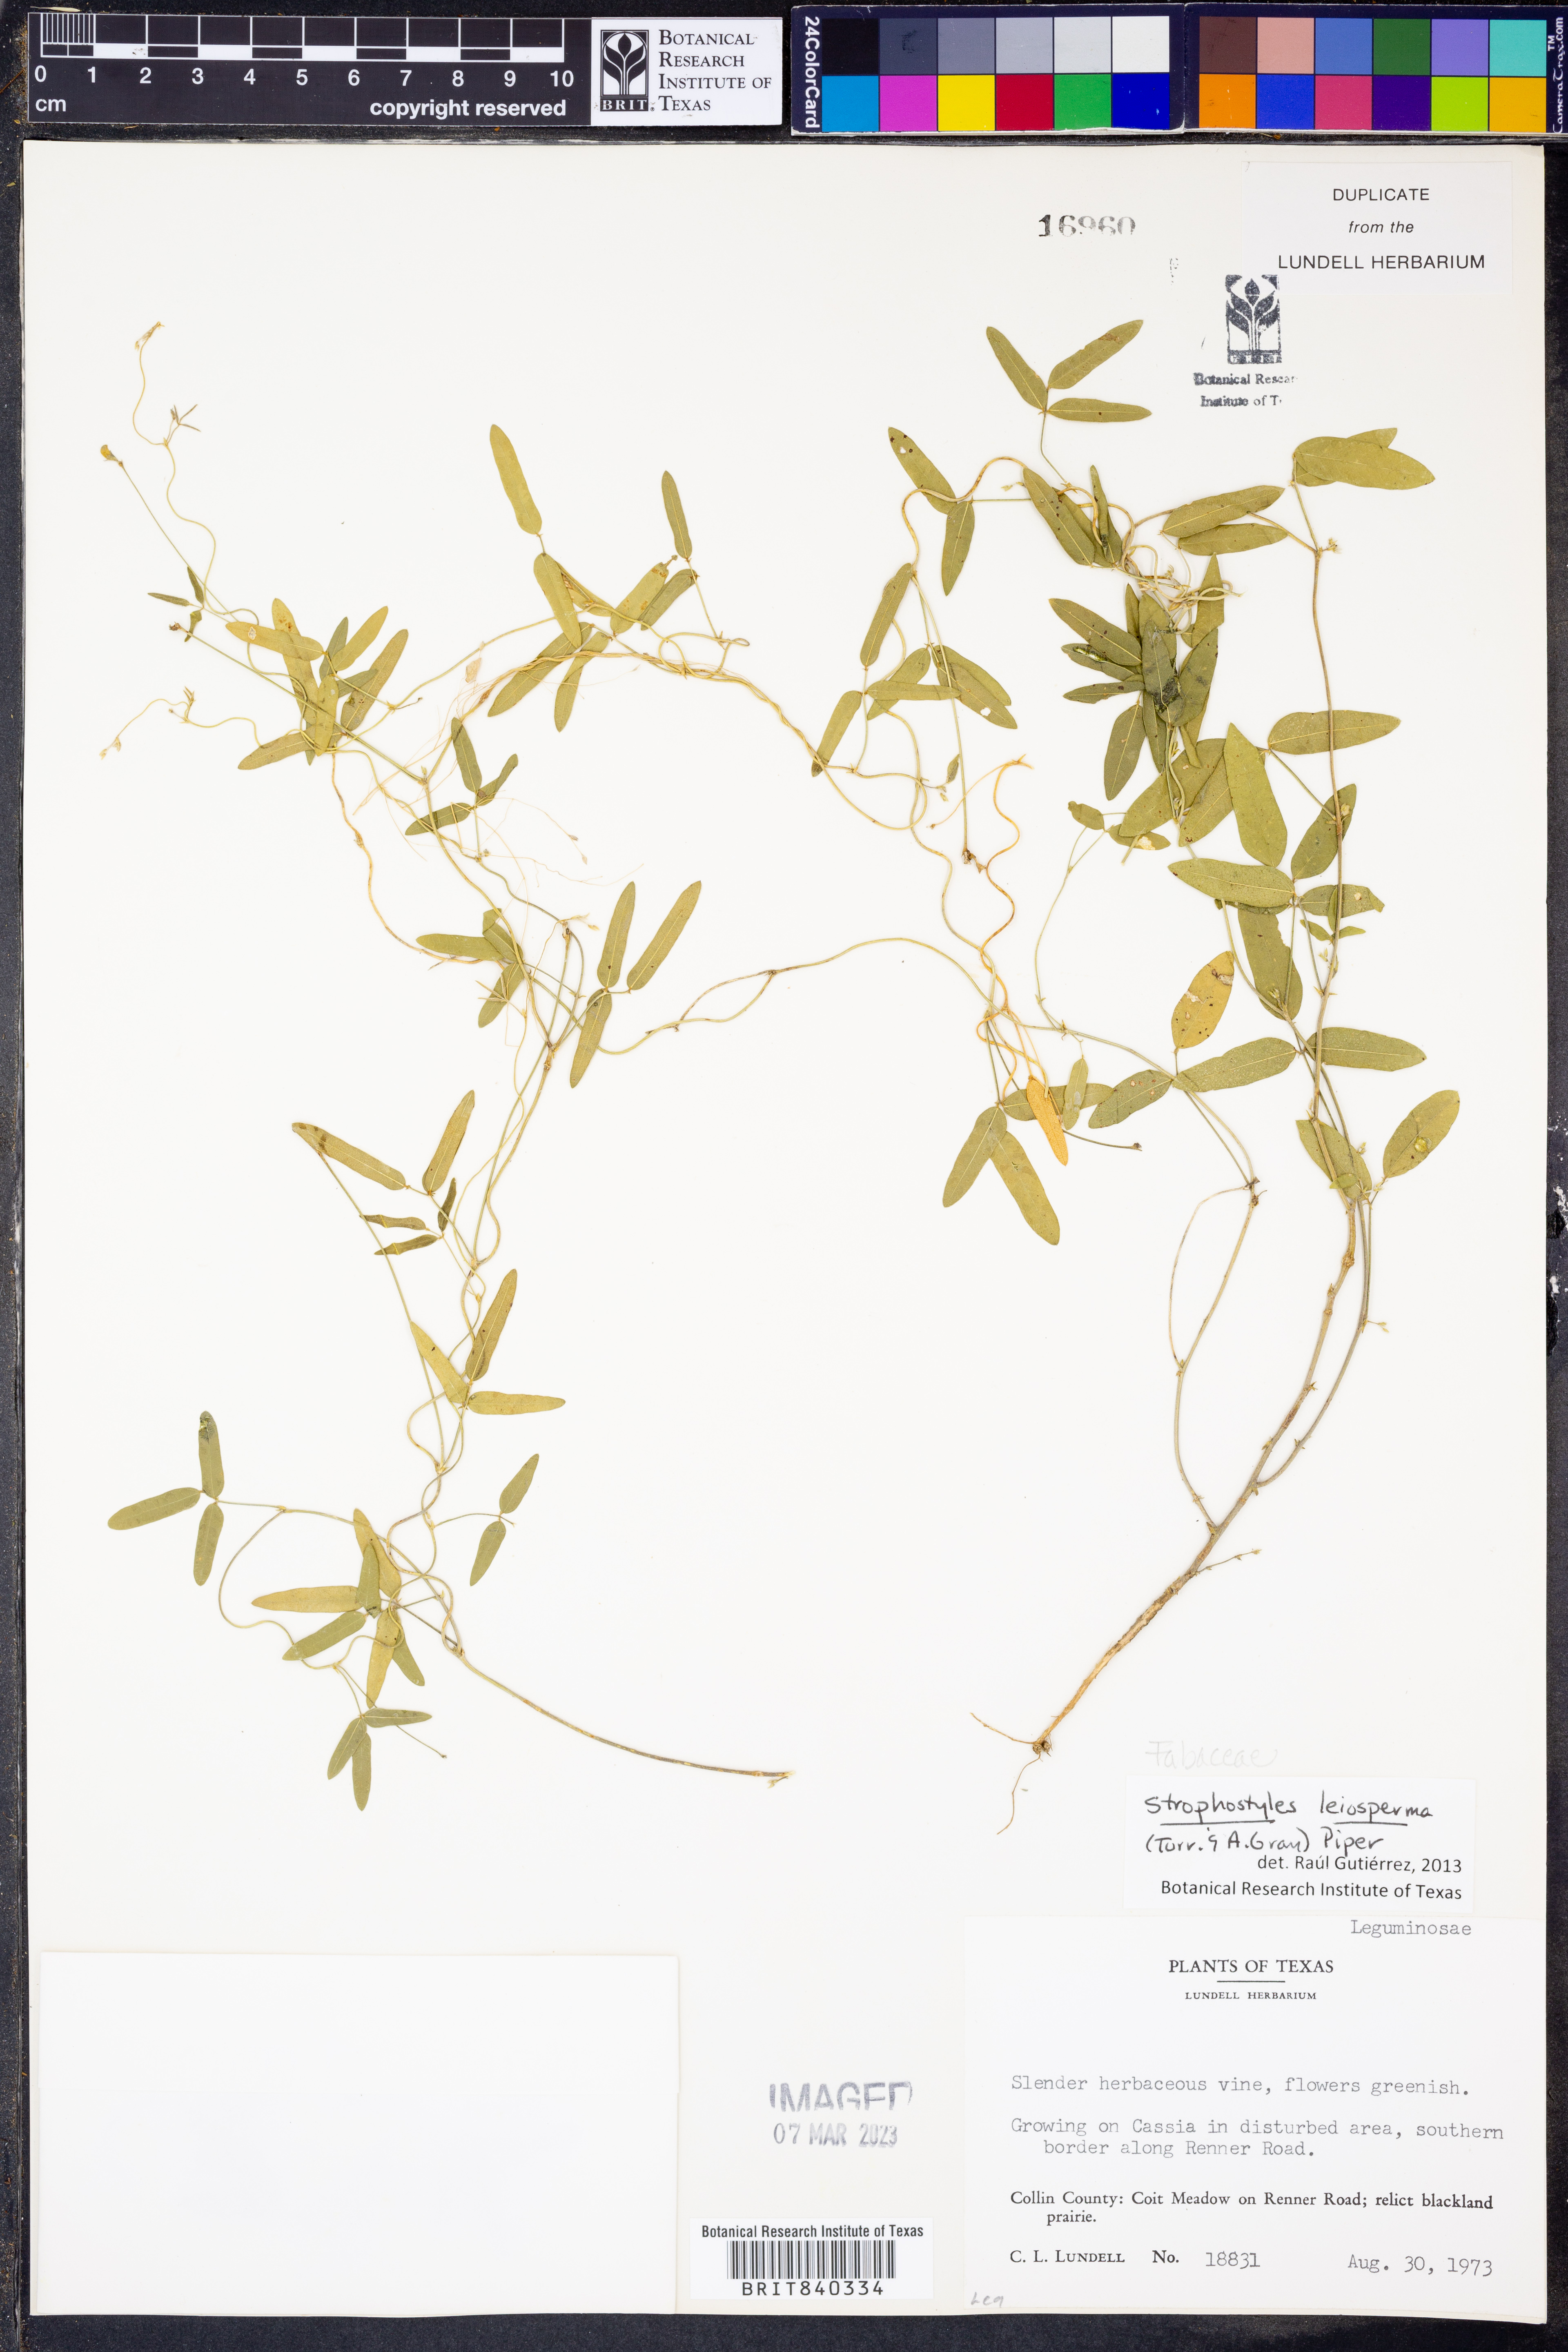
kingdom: Plantae
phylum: Tracheophyta
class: Magnoliopsida
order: Fabales
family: Fabaceae
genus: Strophostyles
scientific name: Strophostyles leiosperma
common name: Smooth-seed wild bean
